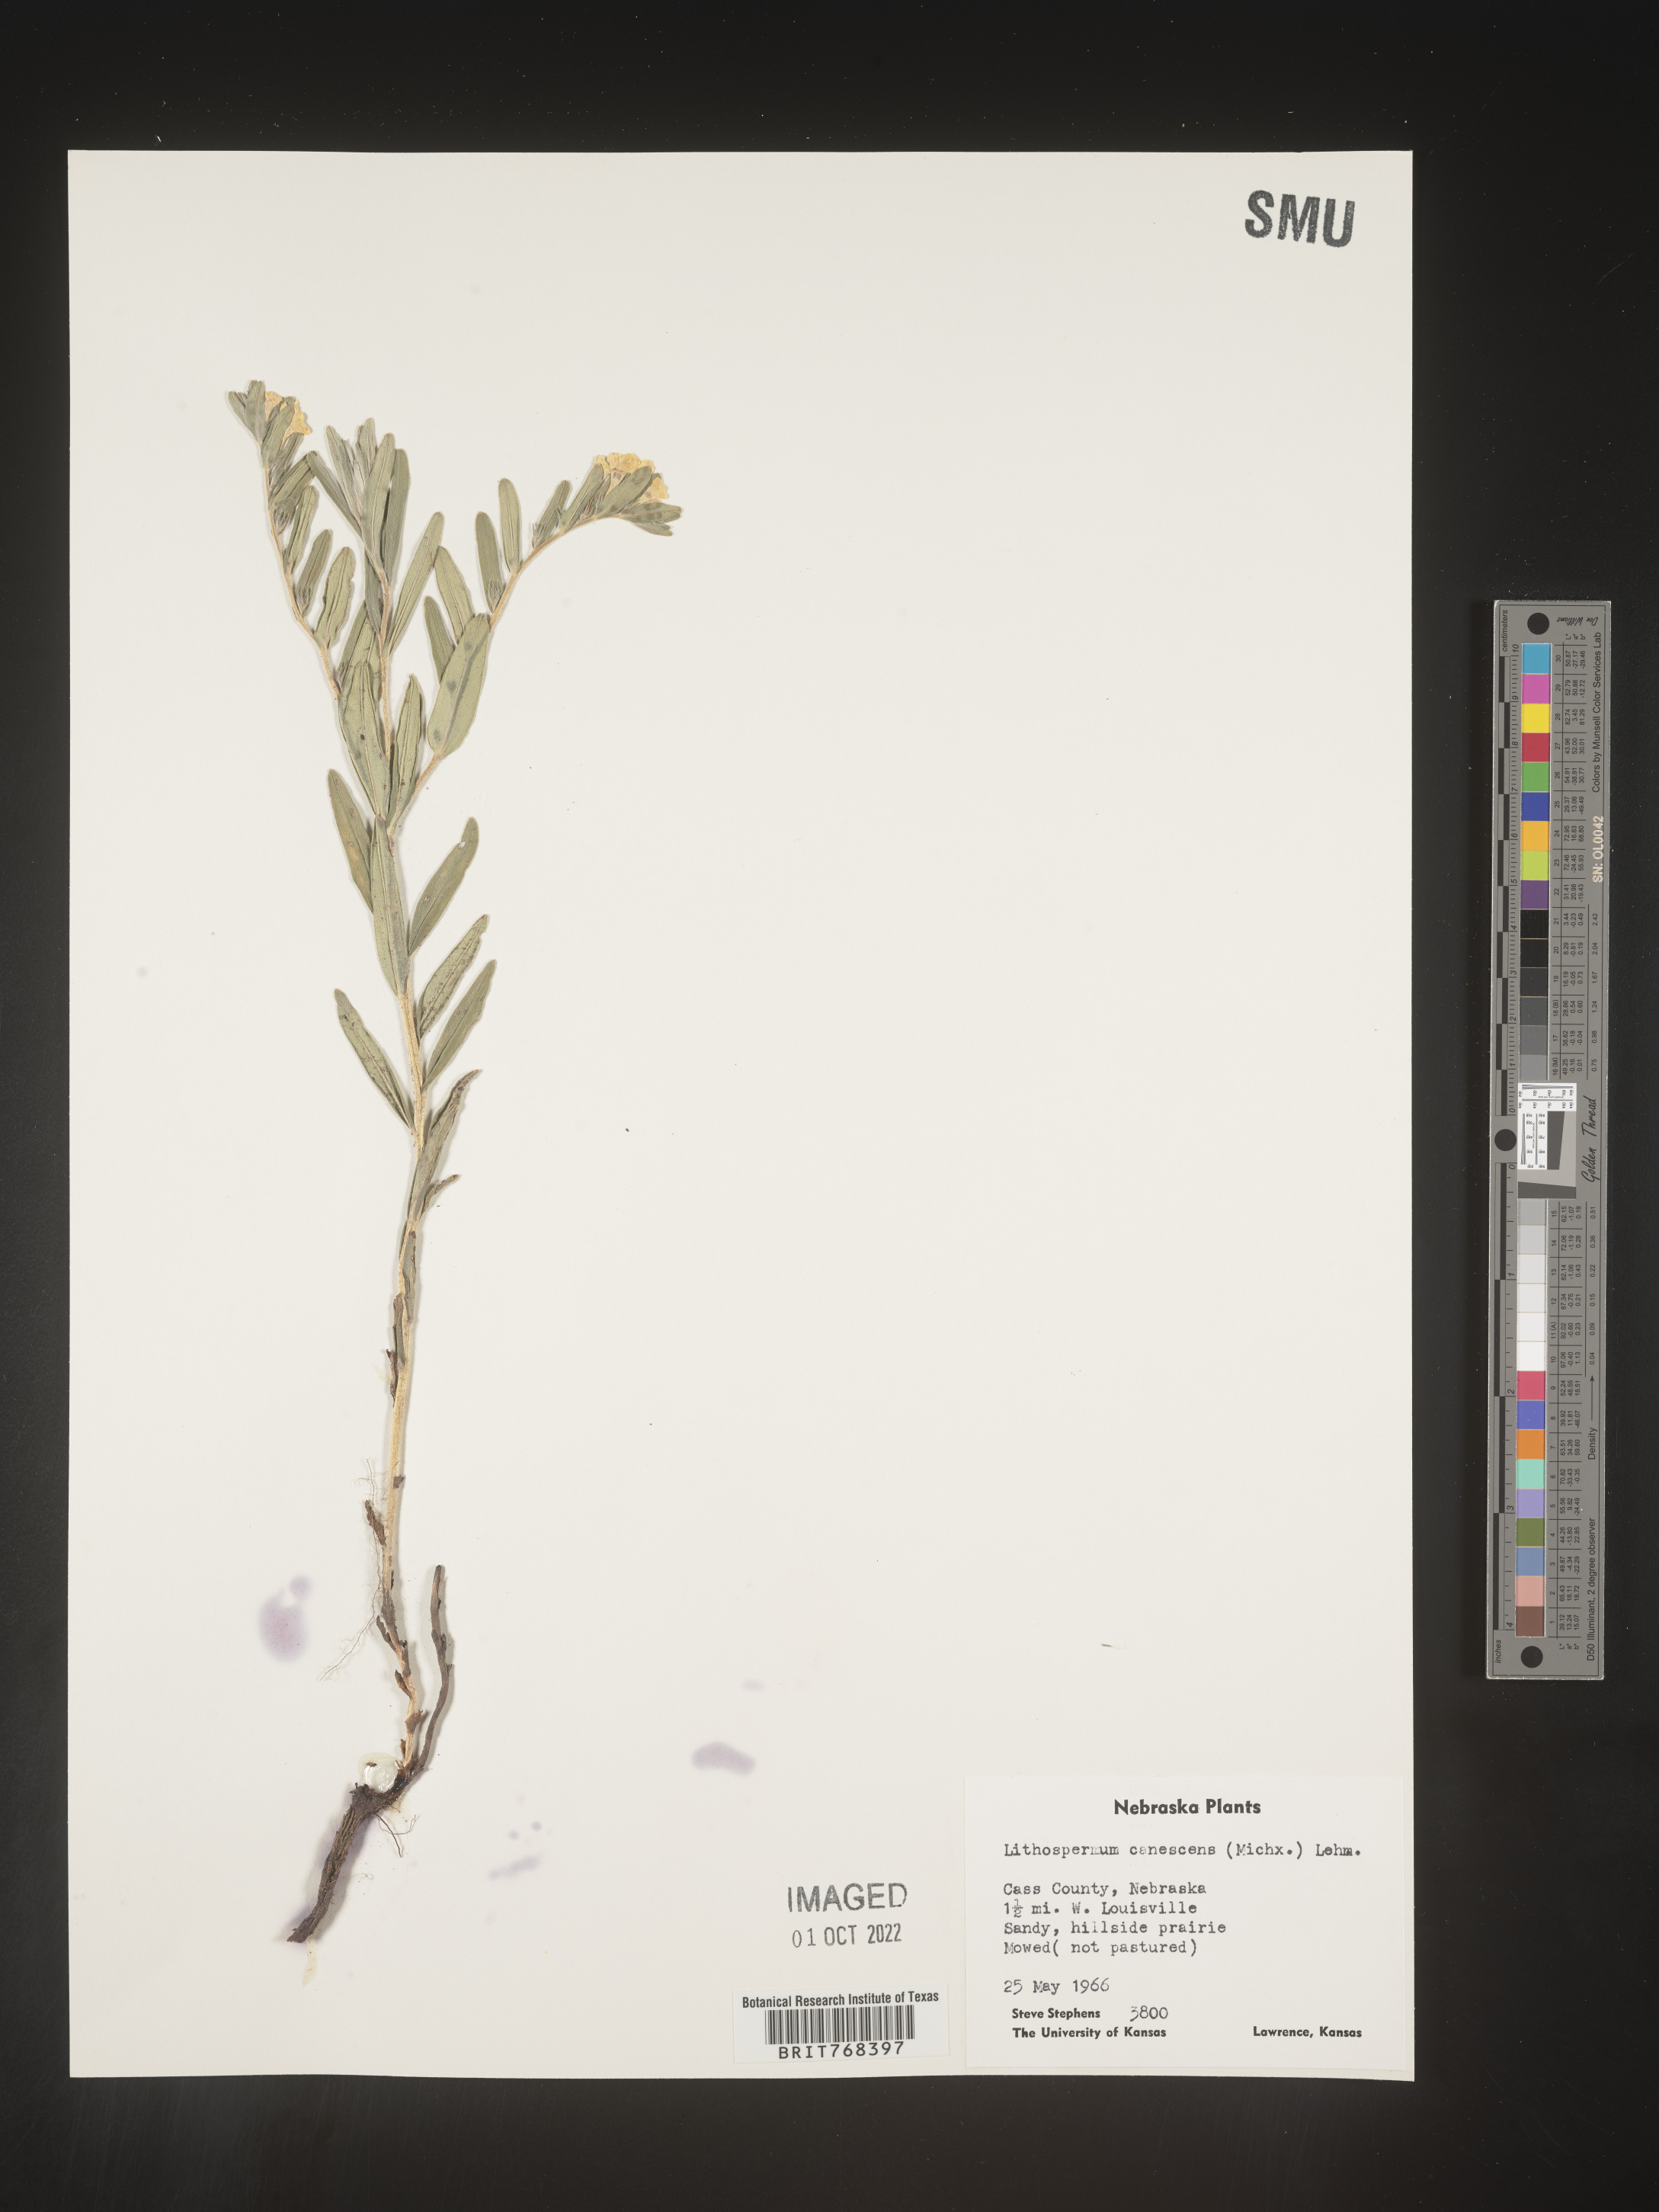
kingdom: Plantae
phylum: Tracheophyta
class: Magnoliopsida
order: Boraginales
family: Boraginaceae
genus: Lithospermum
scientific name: Lithospermum canescens
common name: Hoary puccoon
